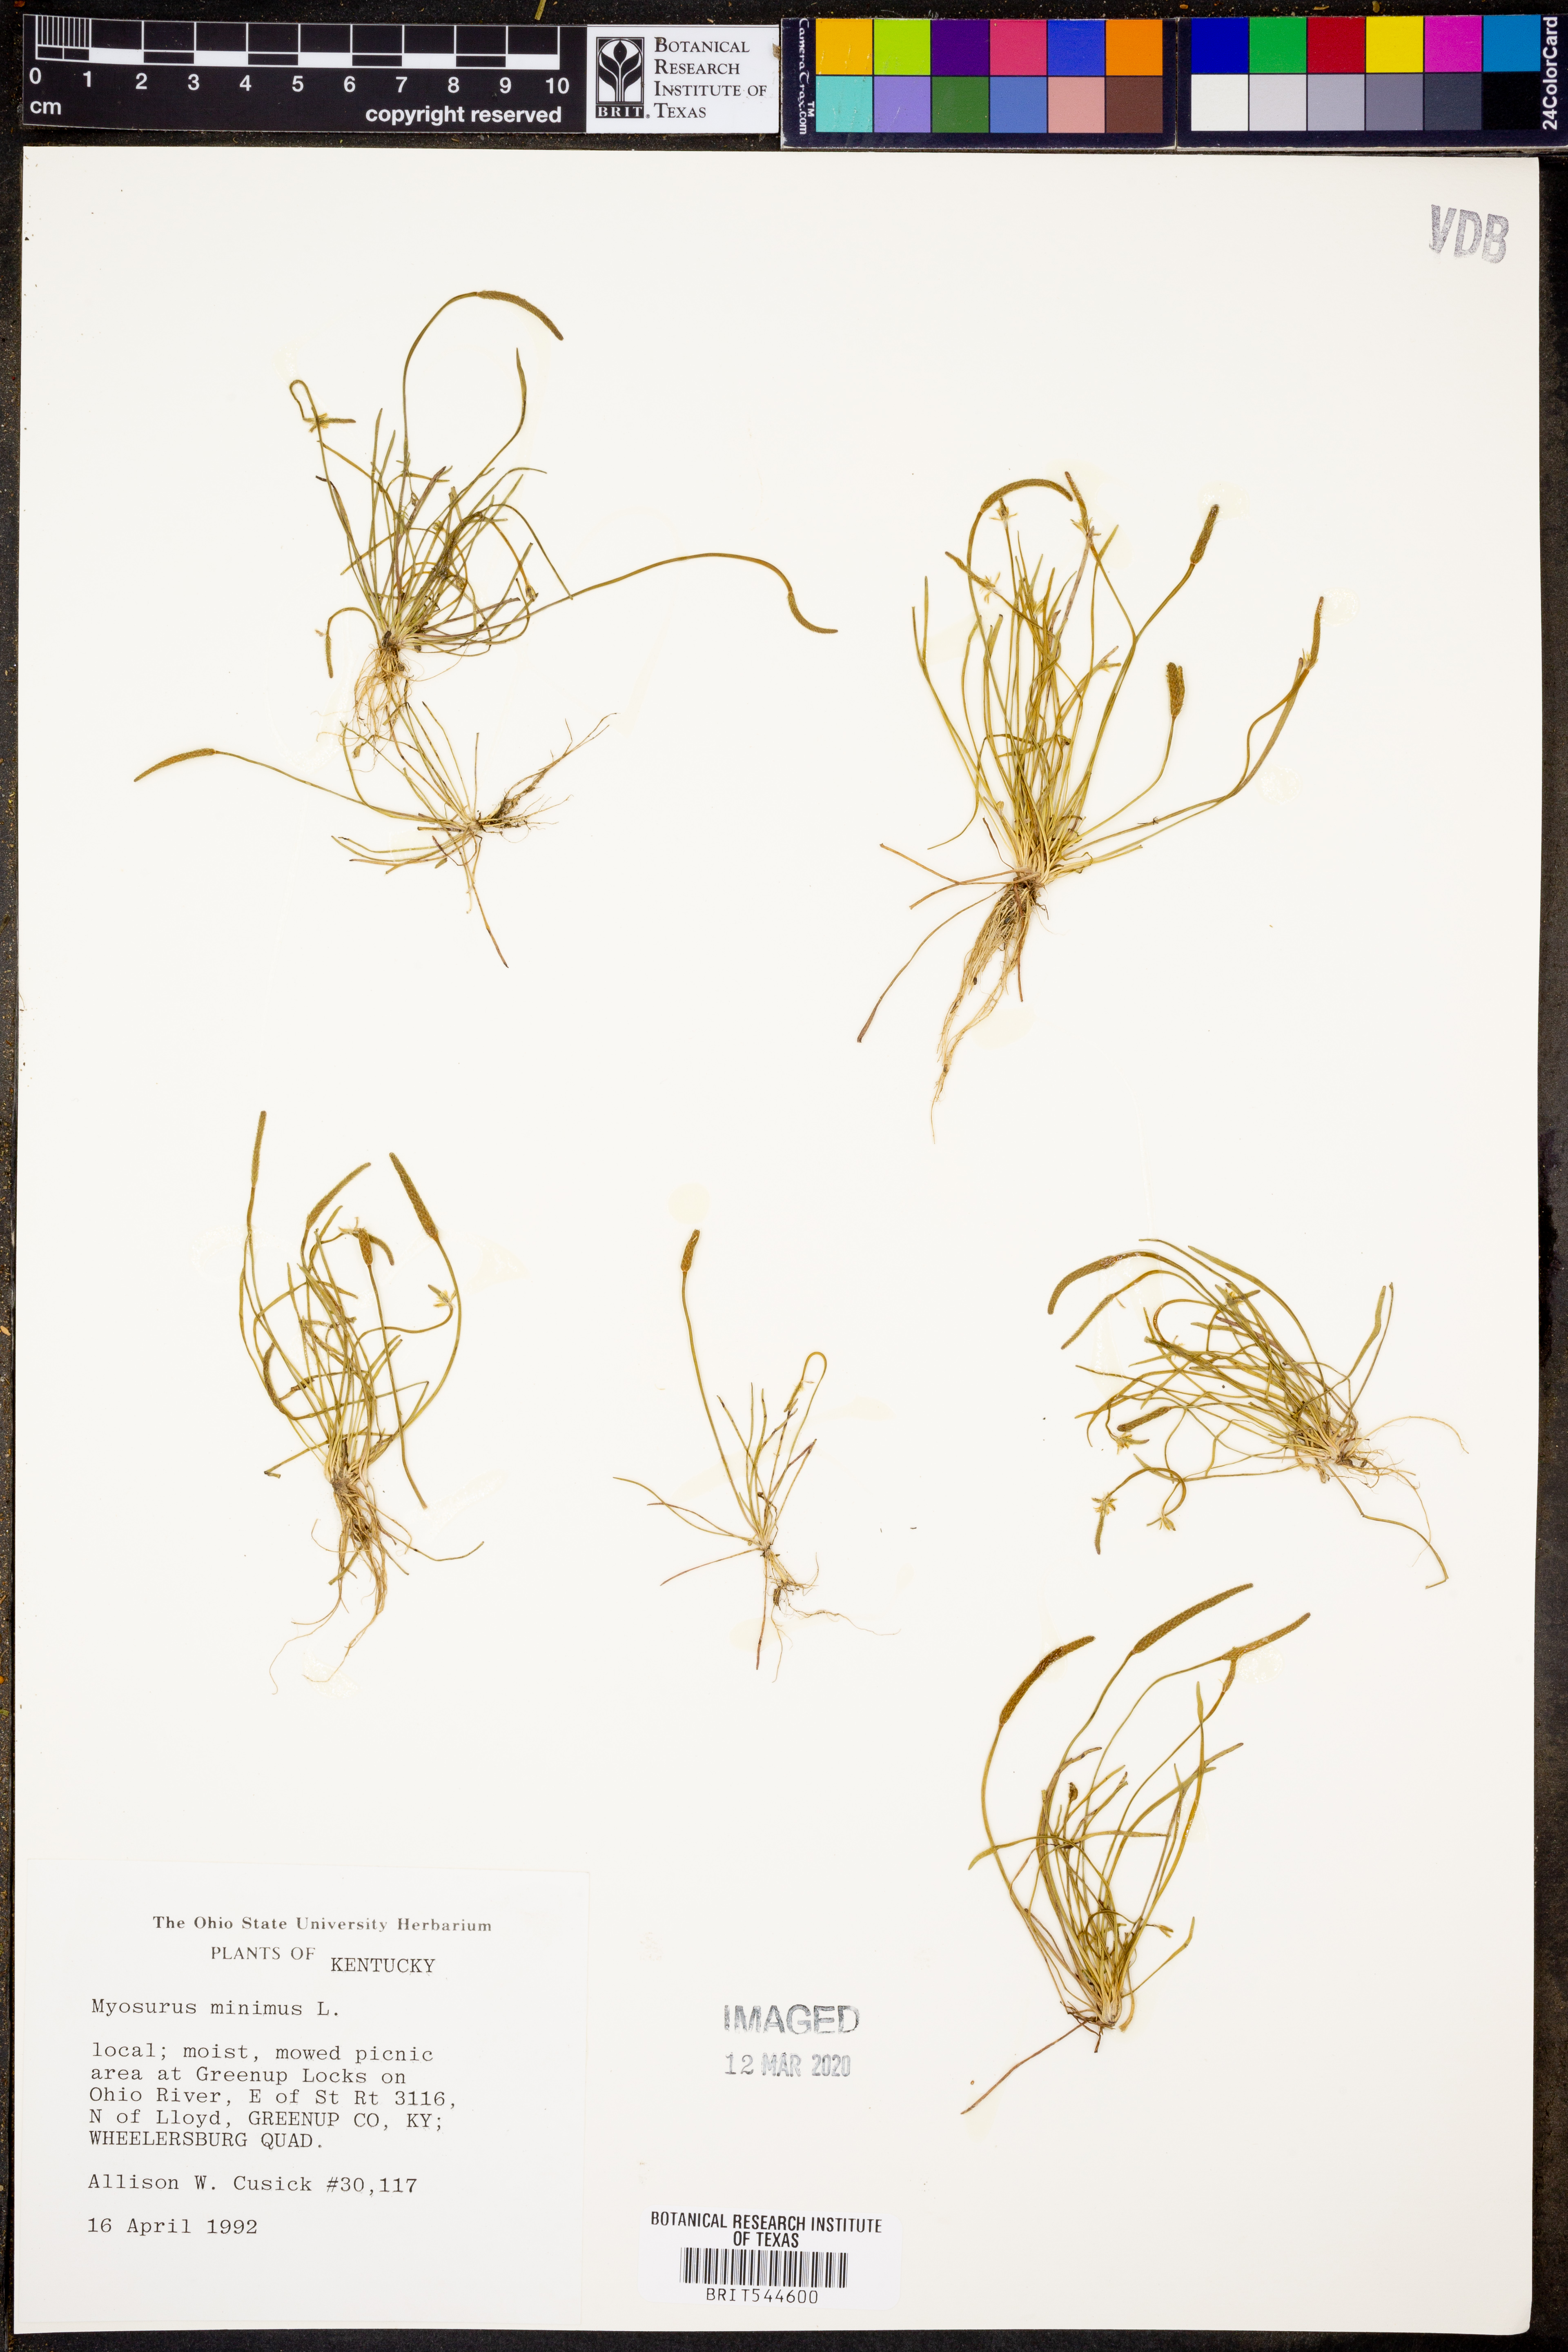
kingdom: Plantae
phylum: Tracheophyta
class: Magnoliopsida
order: Ranunculales
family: Ranunculaceae
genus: Myosurus
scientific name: Myosurus minimus
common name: Mousetail
